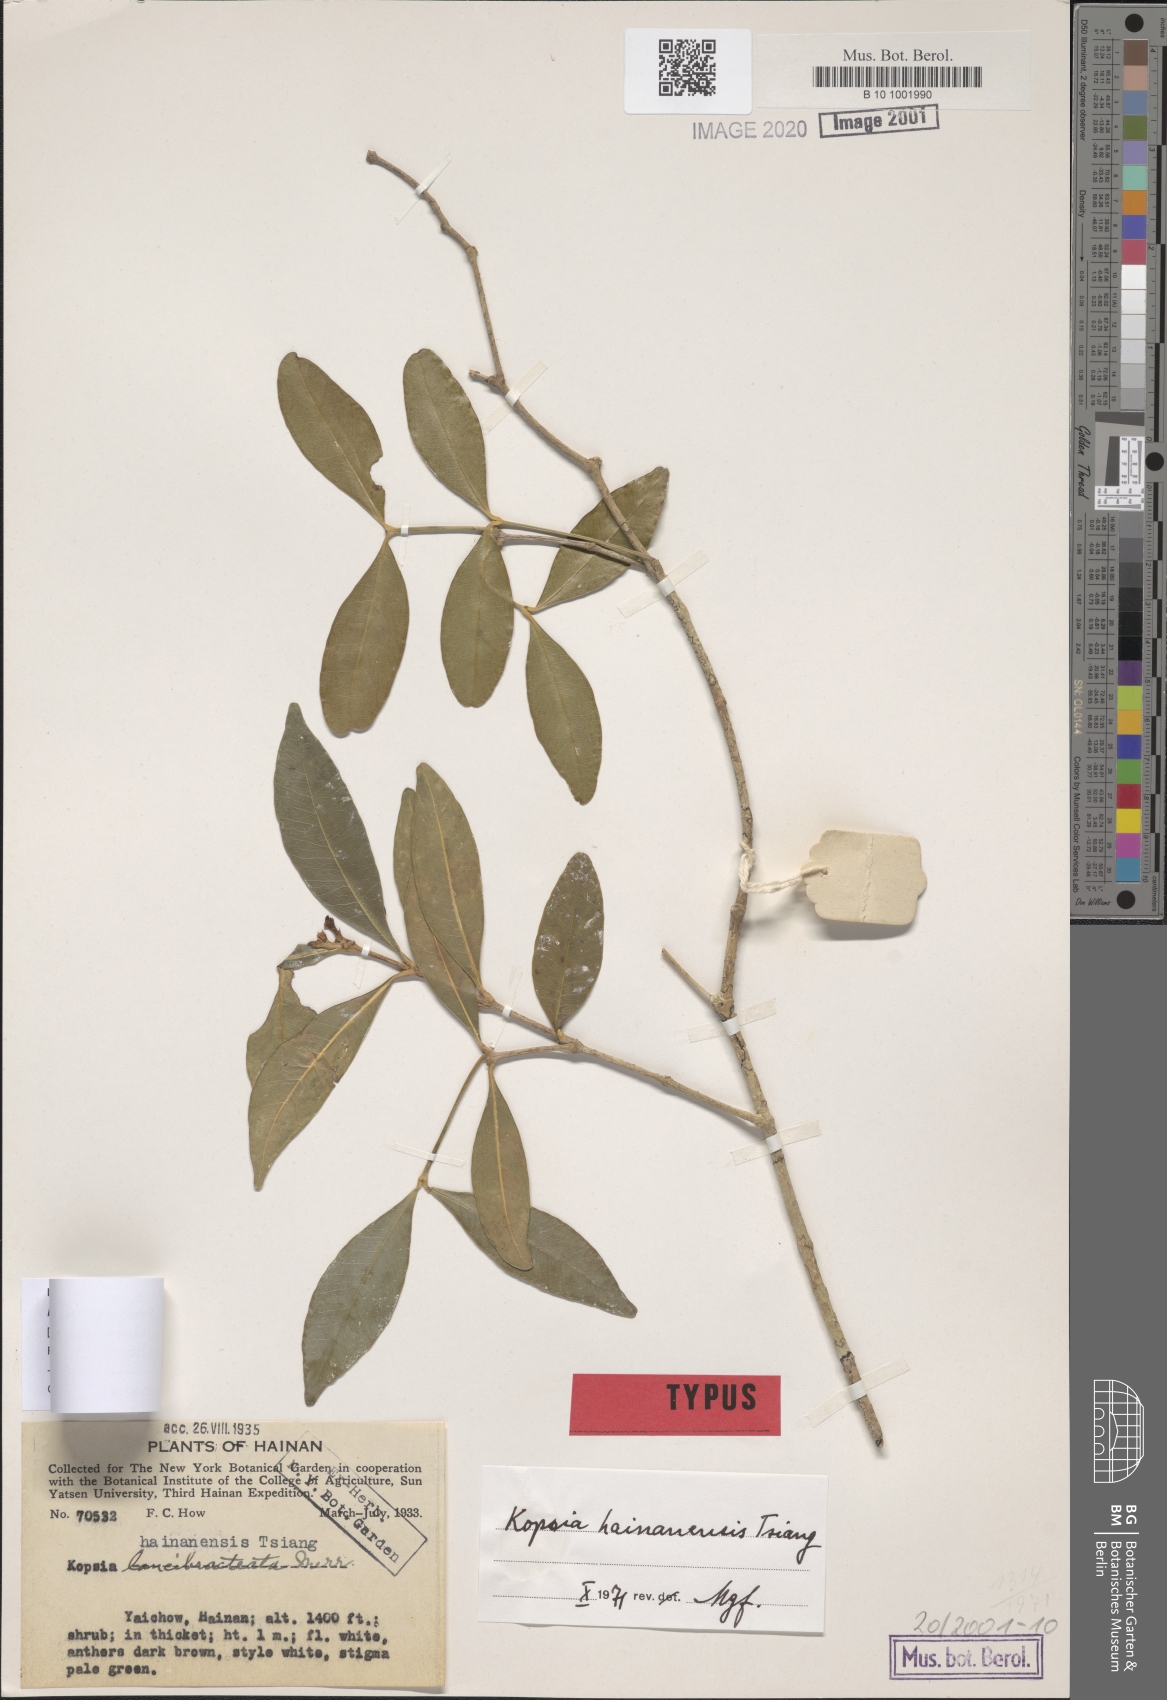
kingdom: Plantae
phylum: Tracheophyta
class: Magnoliopsida
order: Gentianales
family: Apocynaceae
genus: Kopsia
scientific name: Kopsia hainanensis
